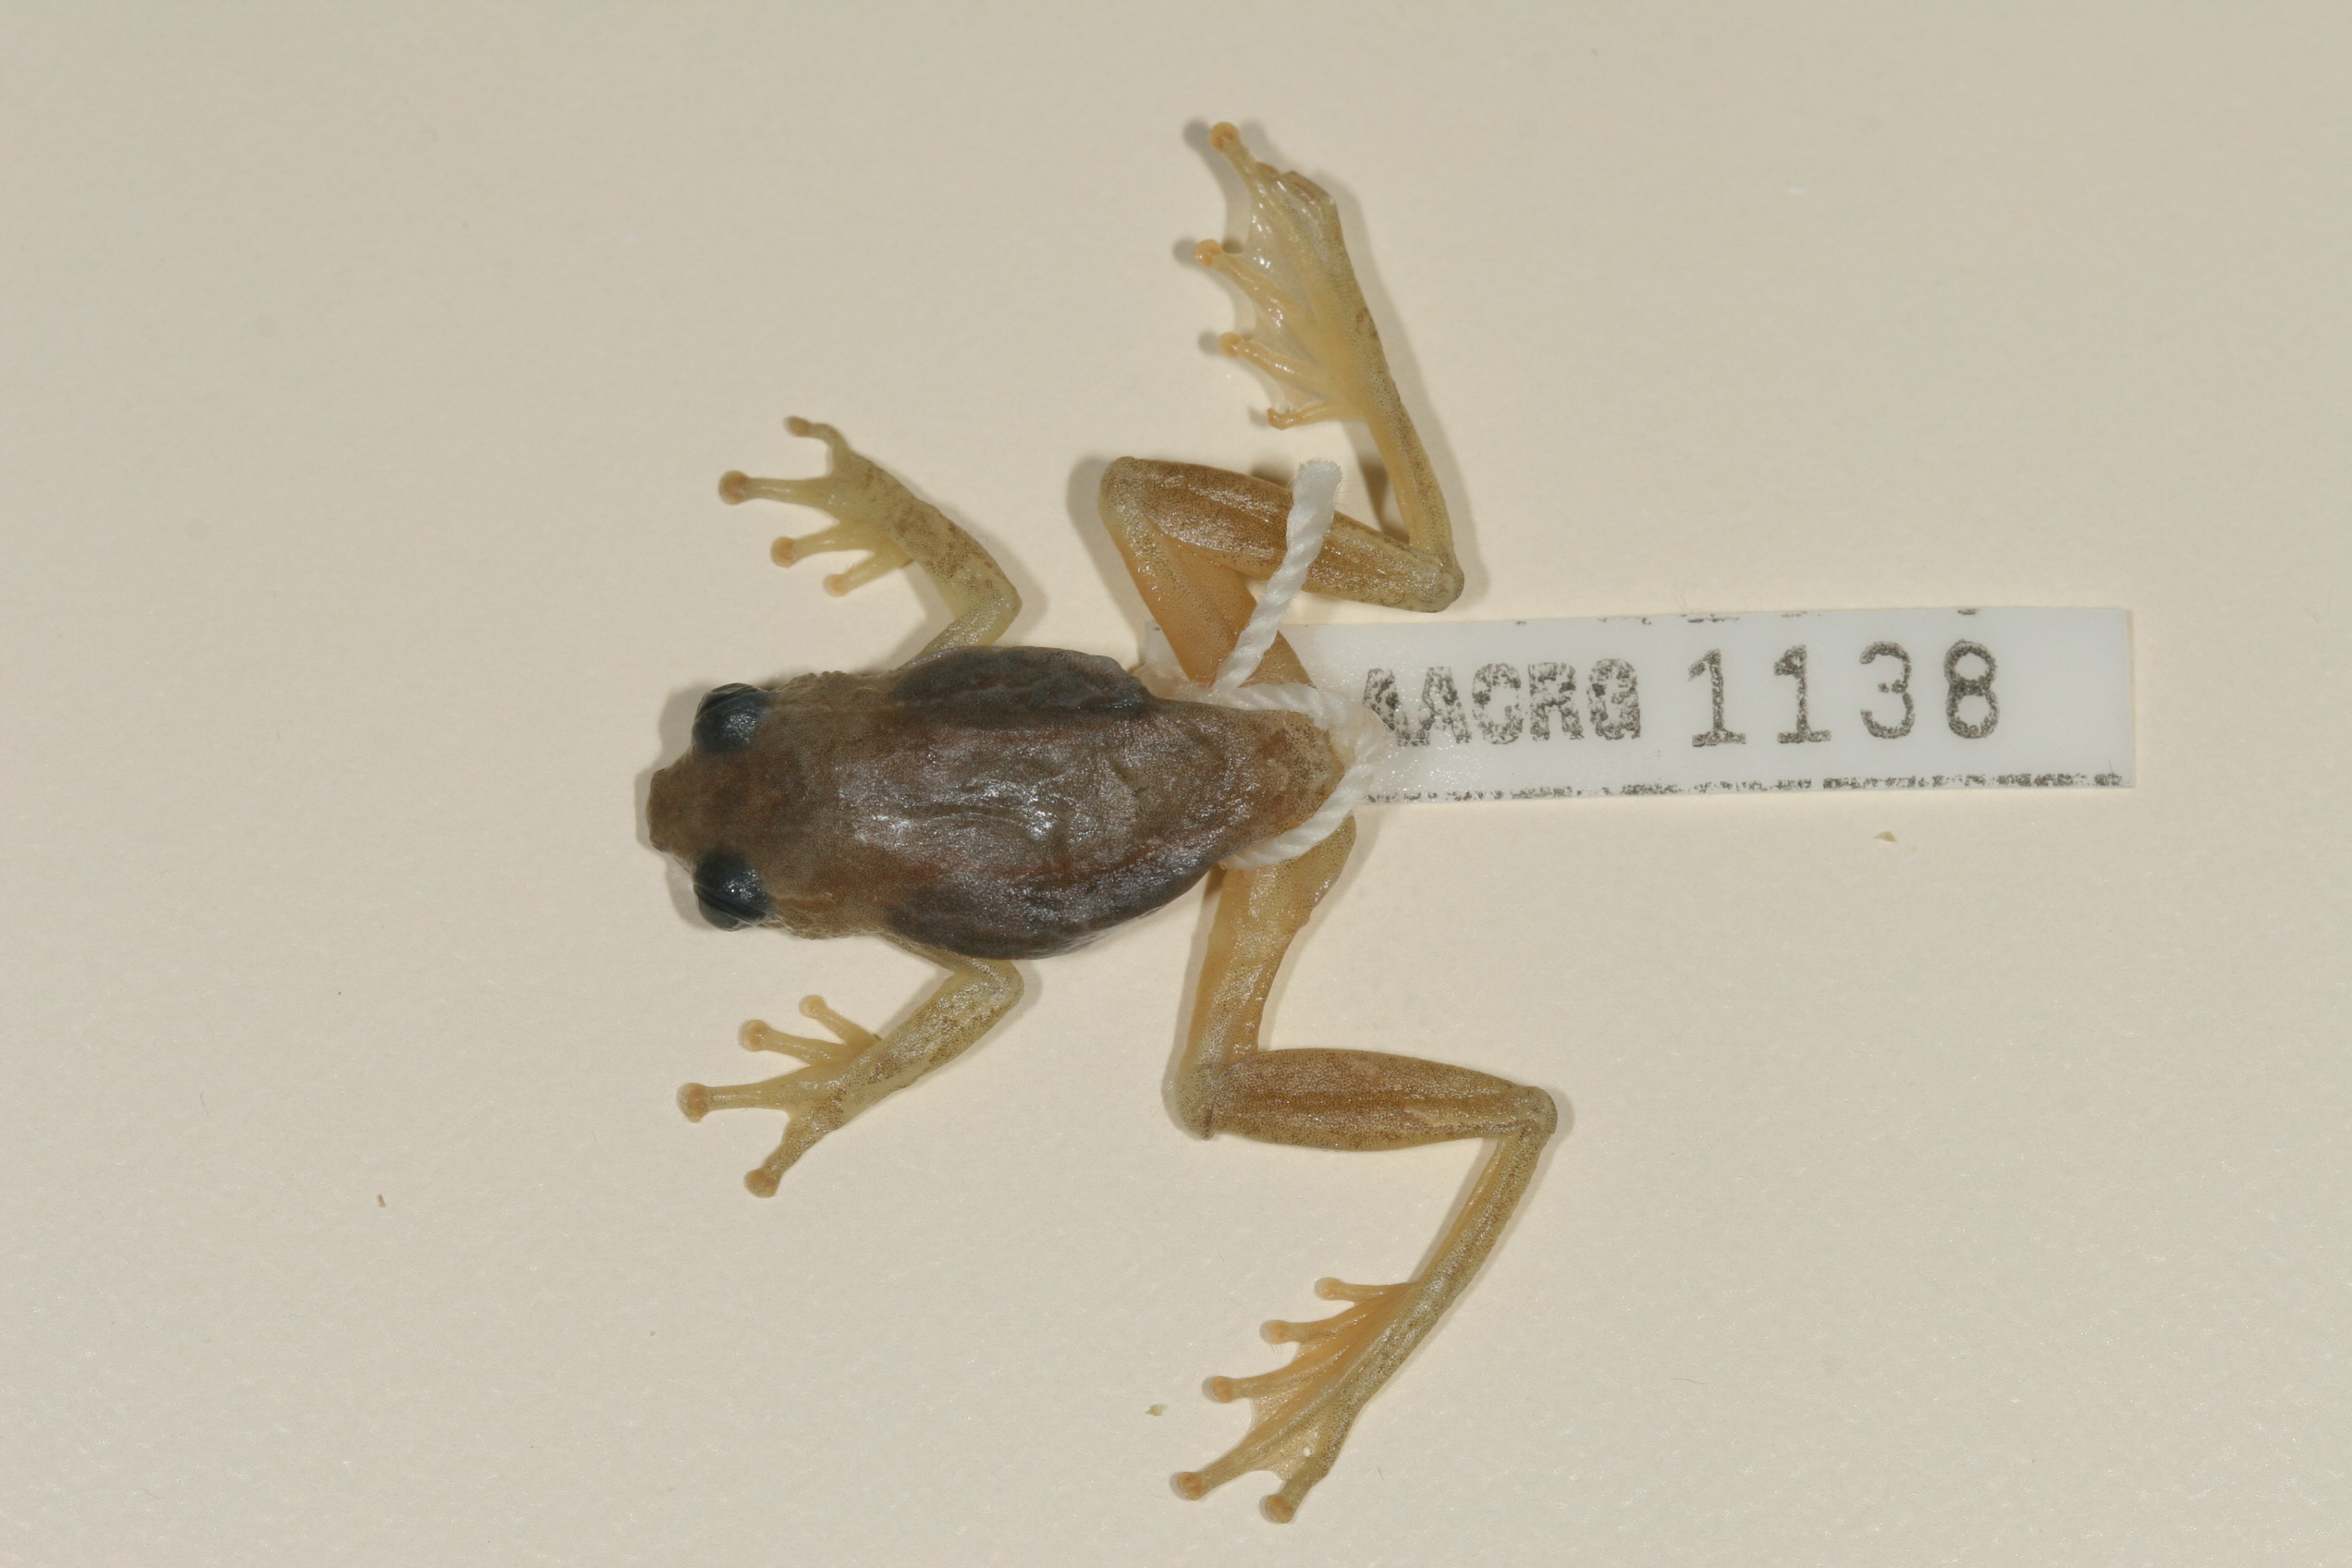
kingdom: Animalia
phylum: Chordata
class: Amphibia
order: Anura
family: Hyperoliidae
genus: Hyperolius
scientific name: Hyperolius pyrrhodictyon
